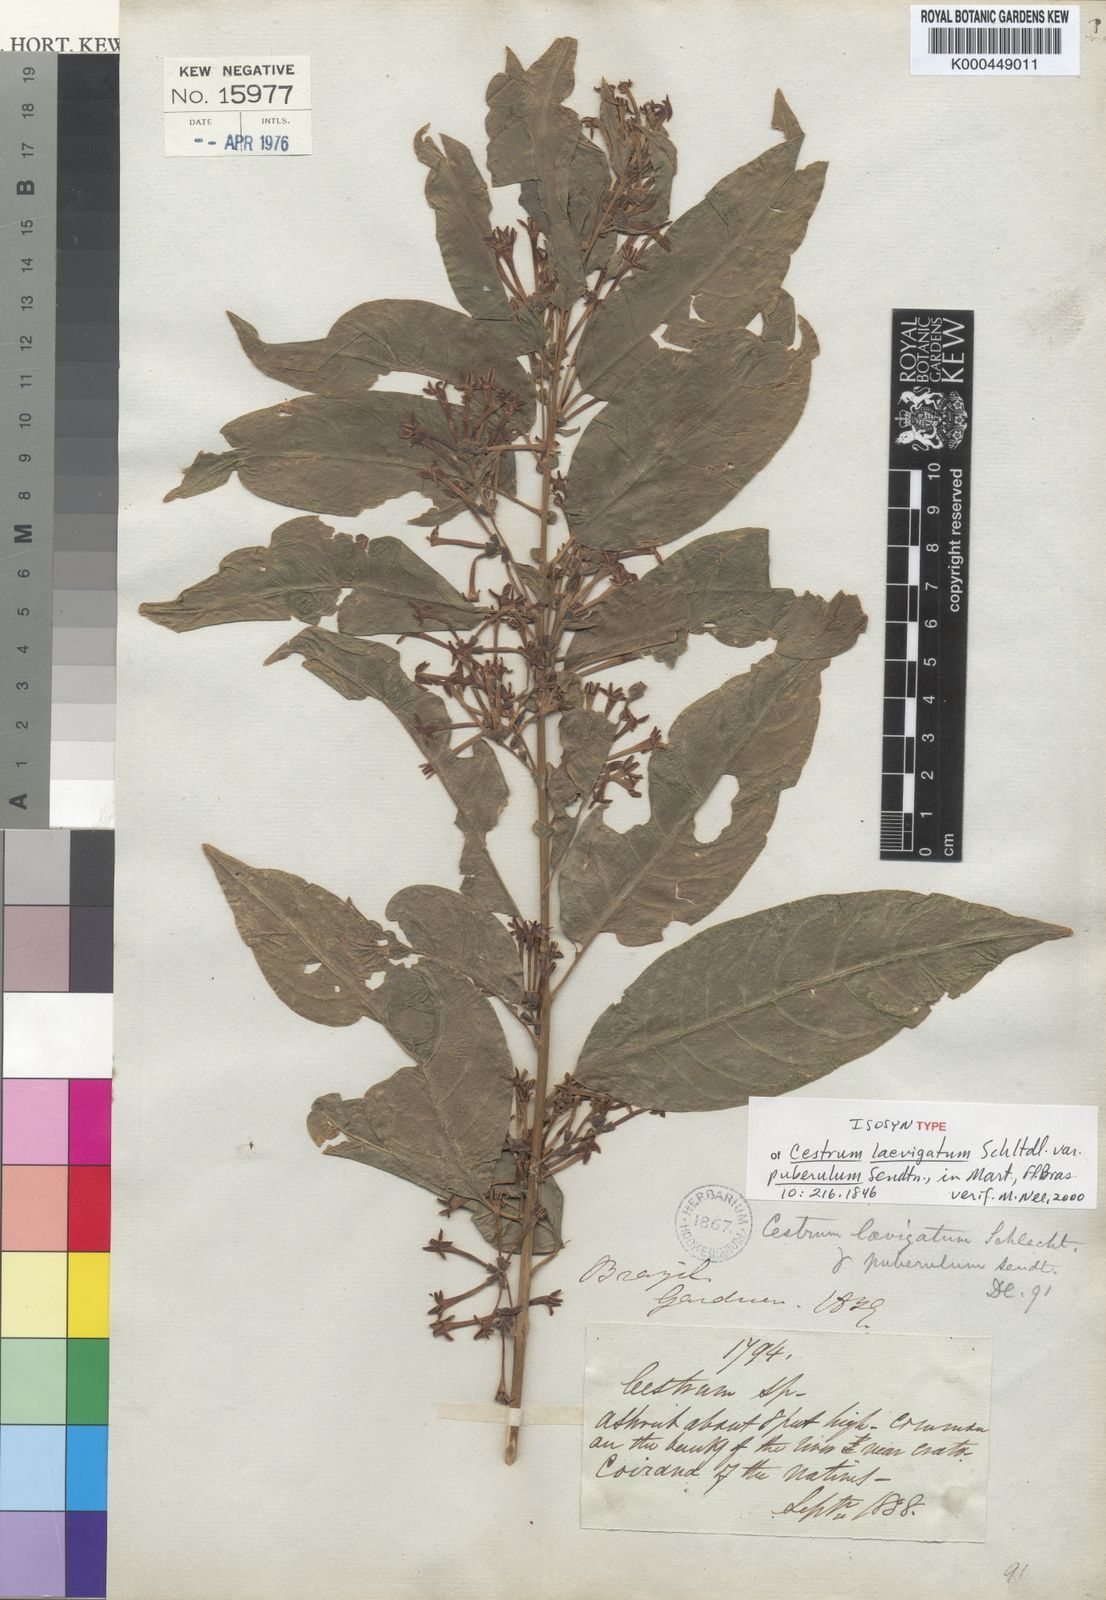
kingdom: Plantae
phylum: Tracheophyta
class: Magnoliopsida
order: Solanales
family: Solanaceae
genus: Cestrum
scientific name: Cestrum laevigatum
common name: Inkberry
